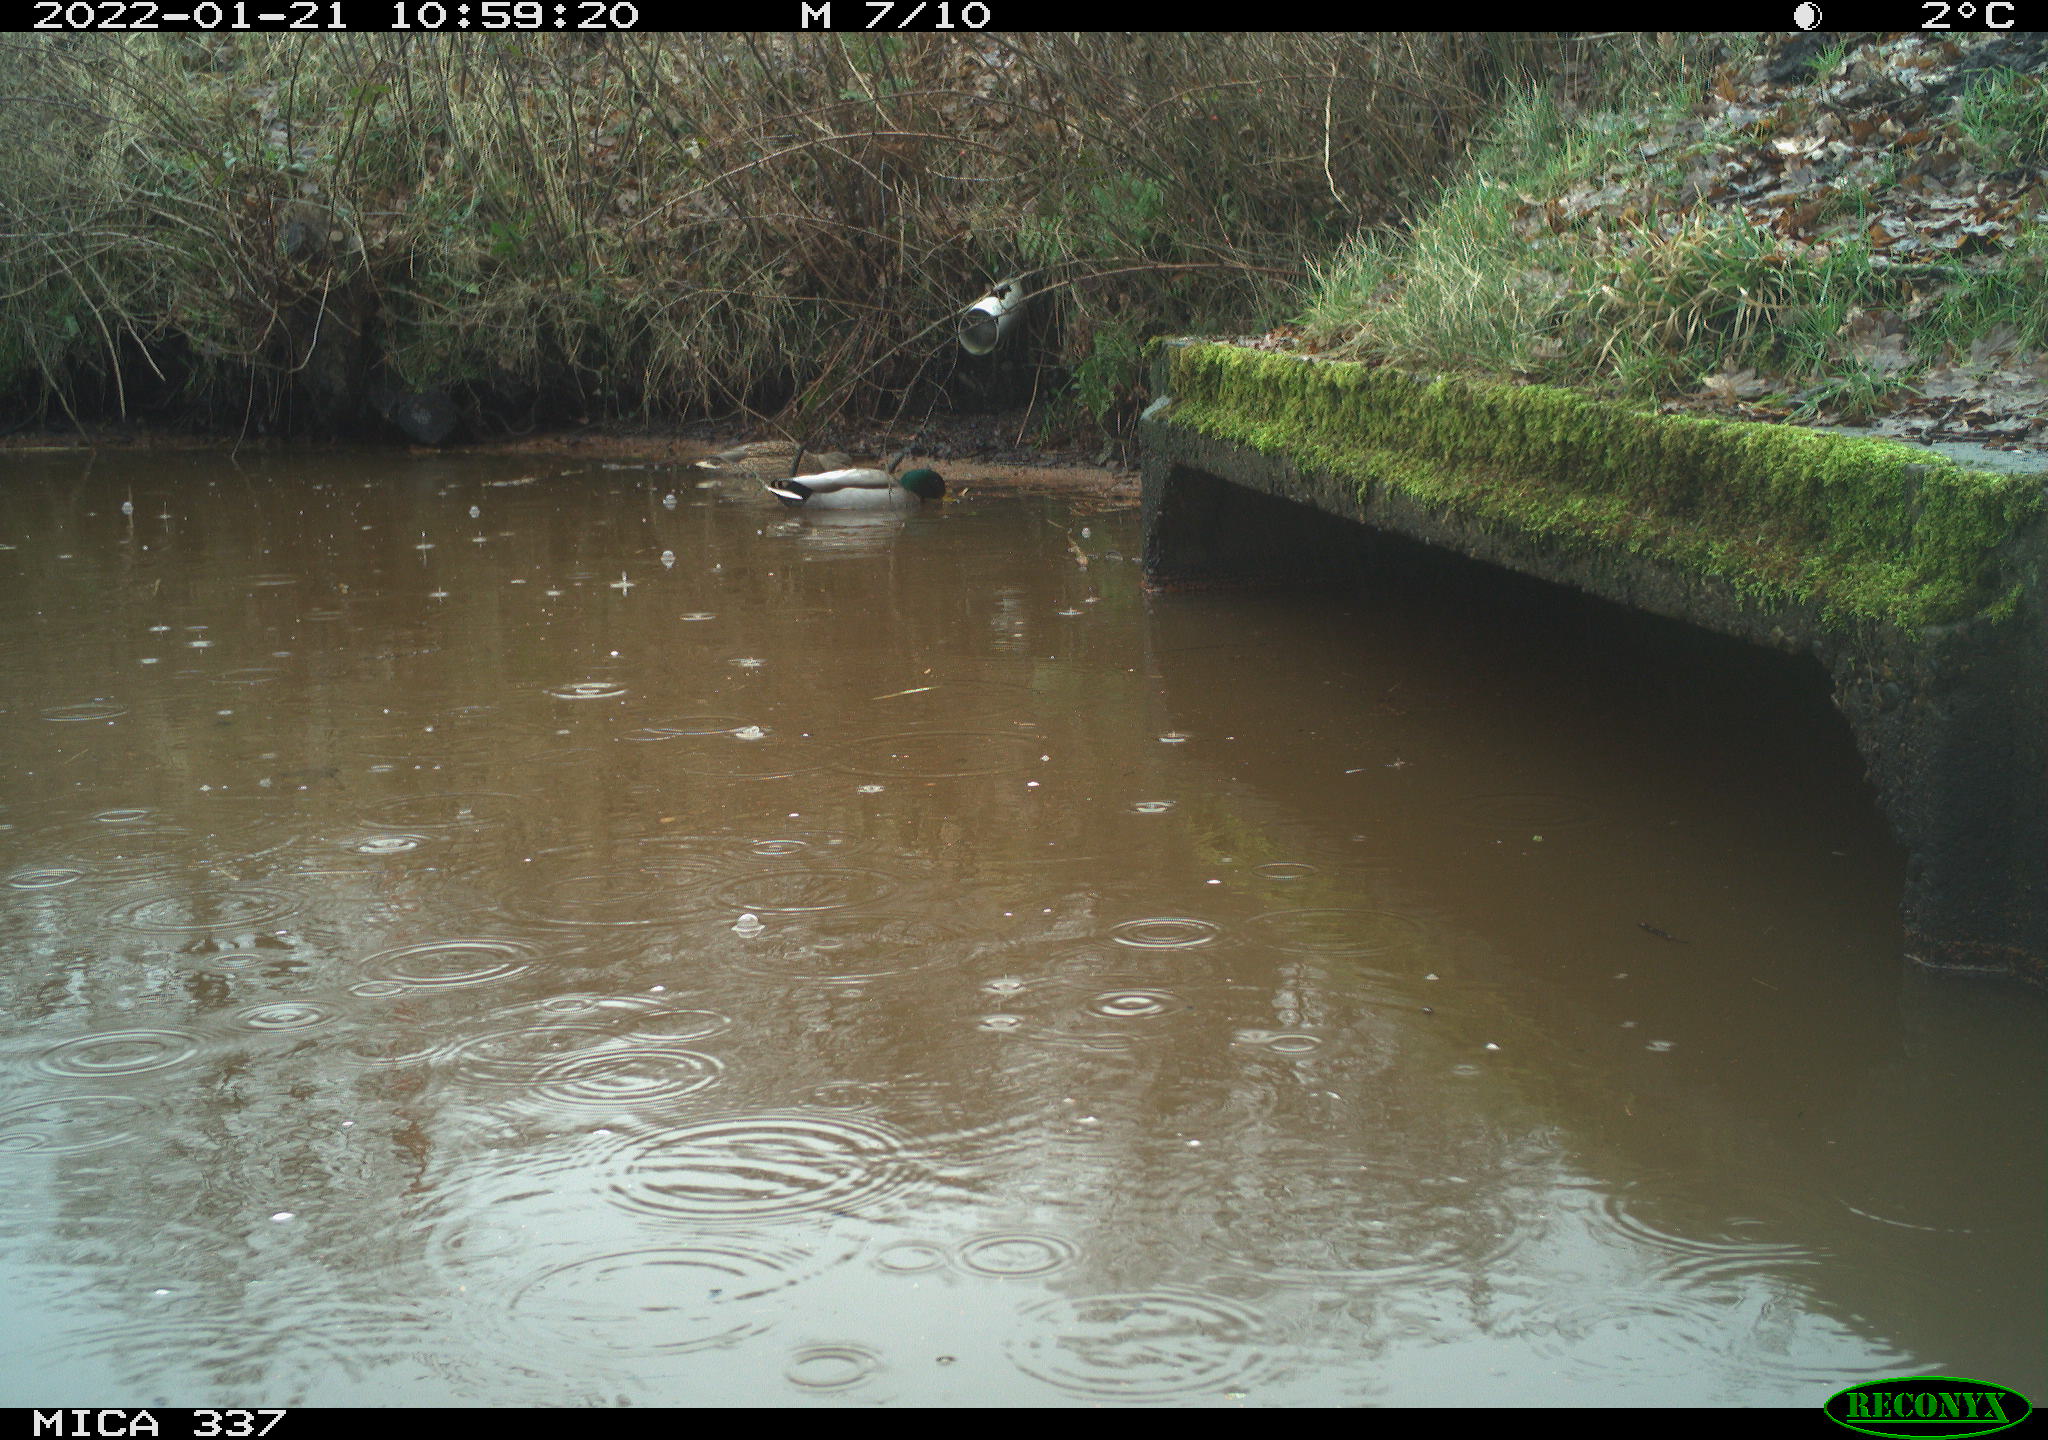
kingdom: Animalia
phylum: Chordata
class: Aves
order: Anseriformes
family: Anatidae
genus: Anas
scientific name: Anas platyrhynchos
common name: Mallard
